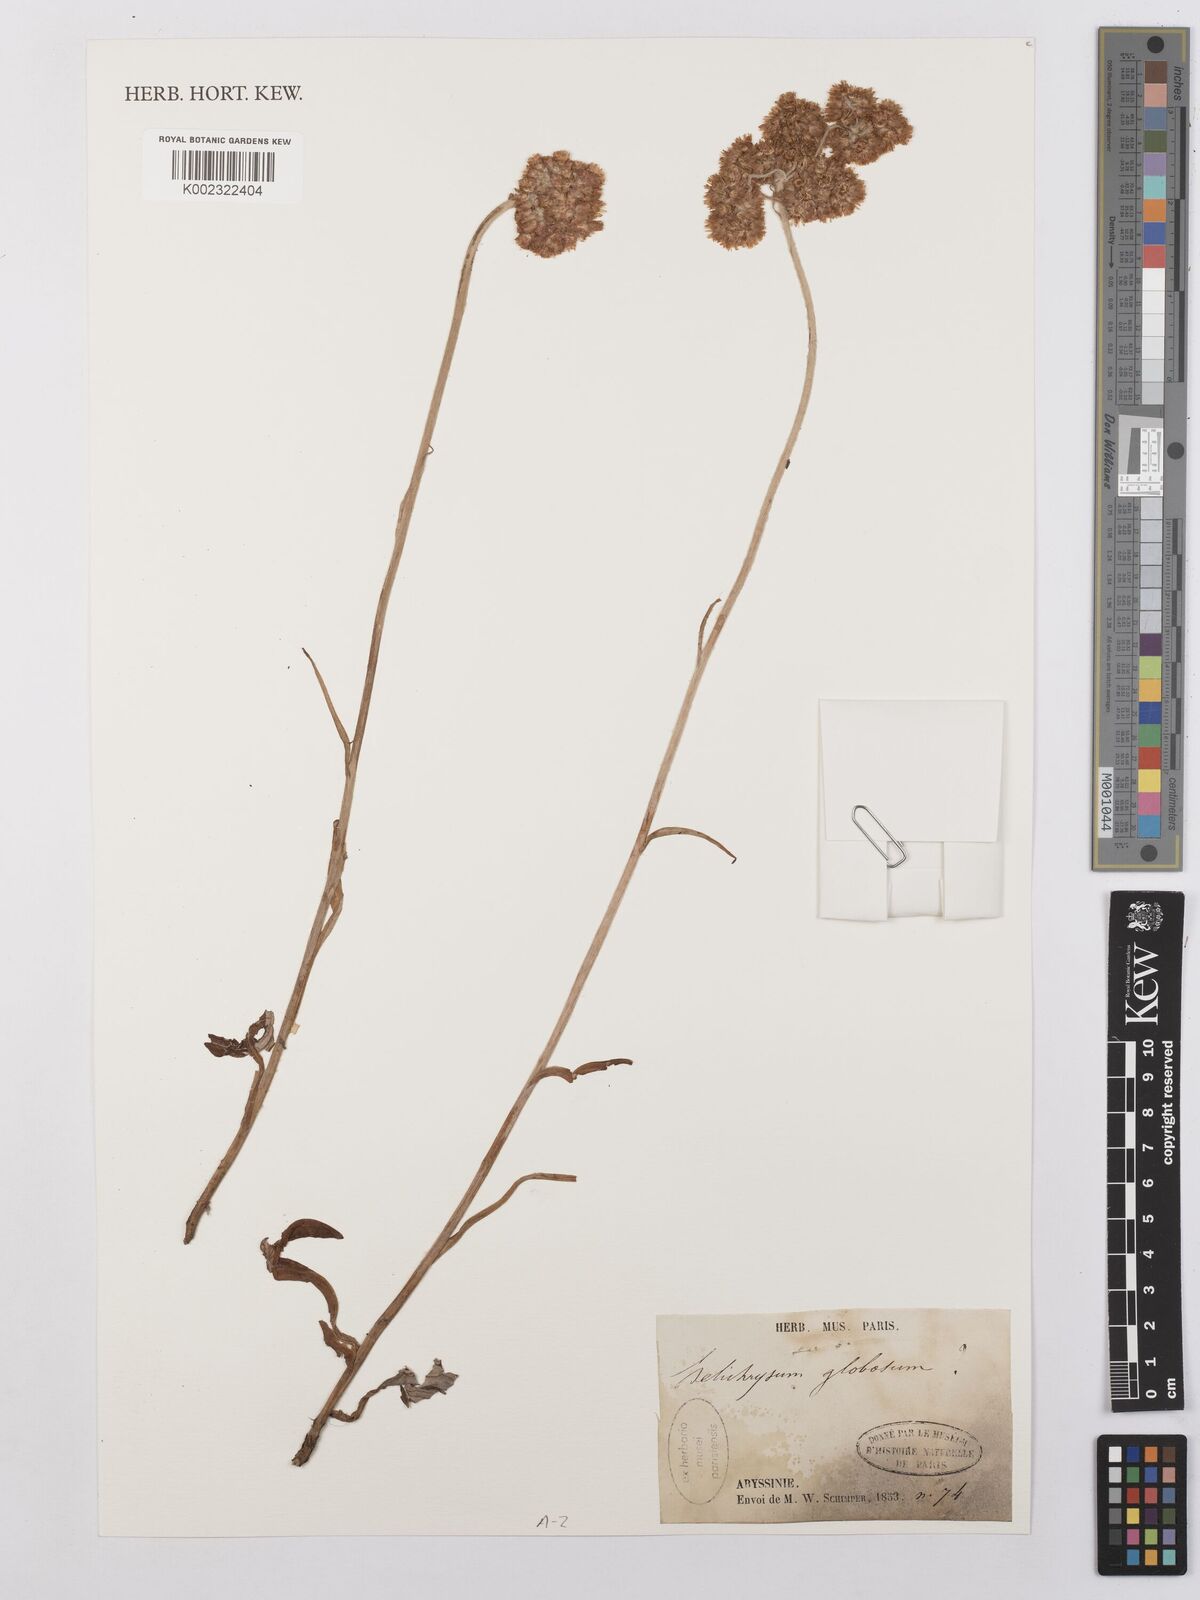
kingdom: Plantae
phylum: Tracheophyta
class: Magnoliopsida
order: Asterales
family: Asteraceae
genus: Helichrysum
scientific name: Helichrysum globosum
